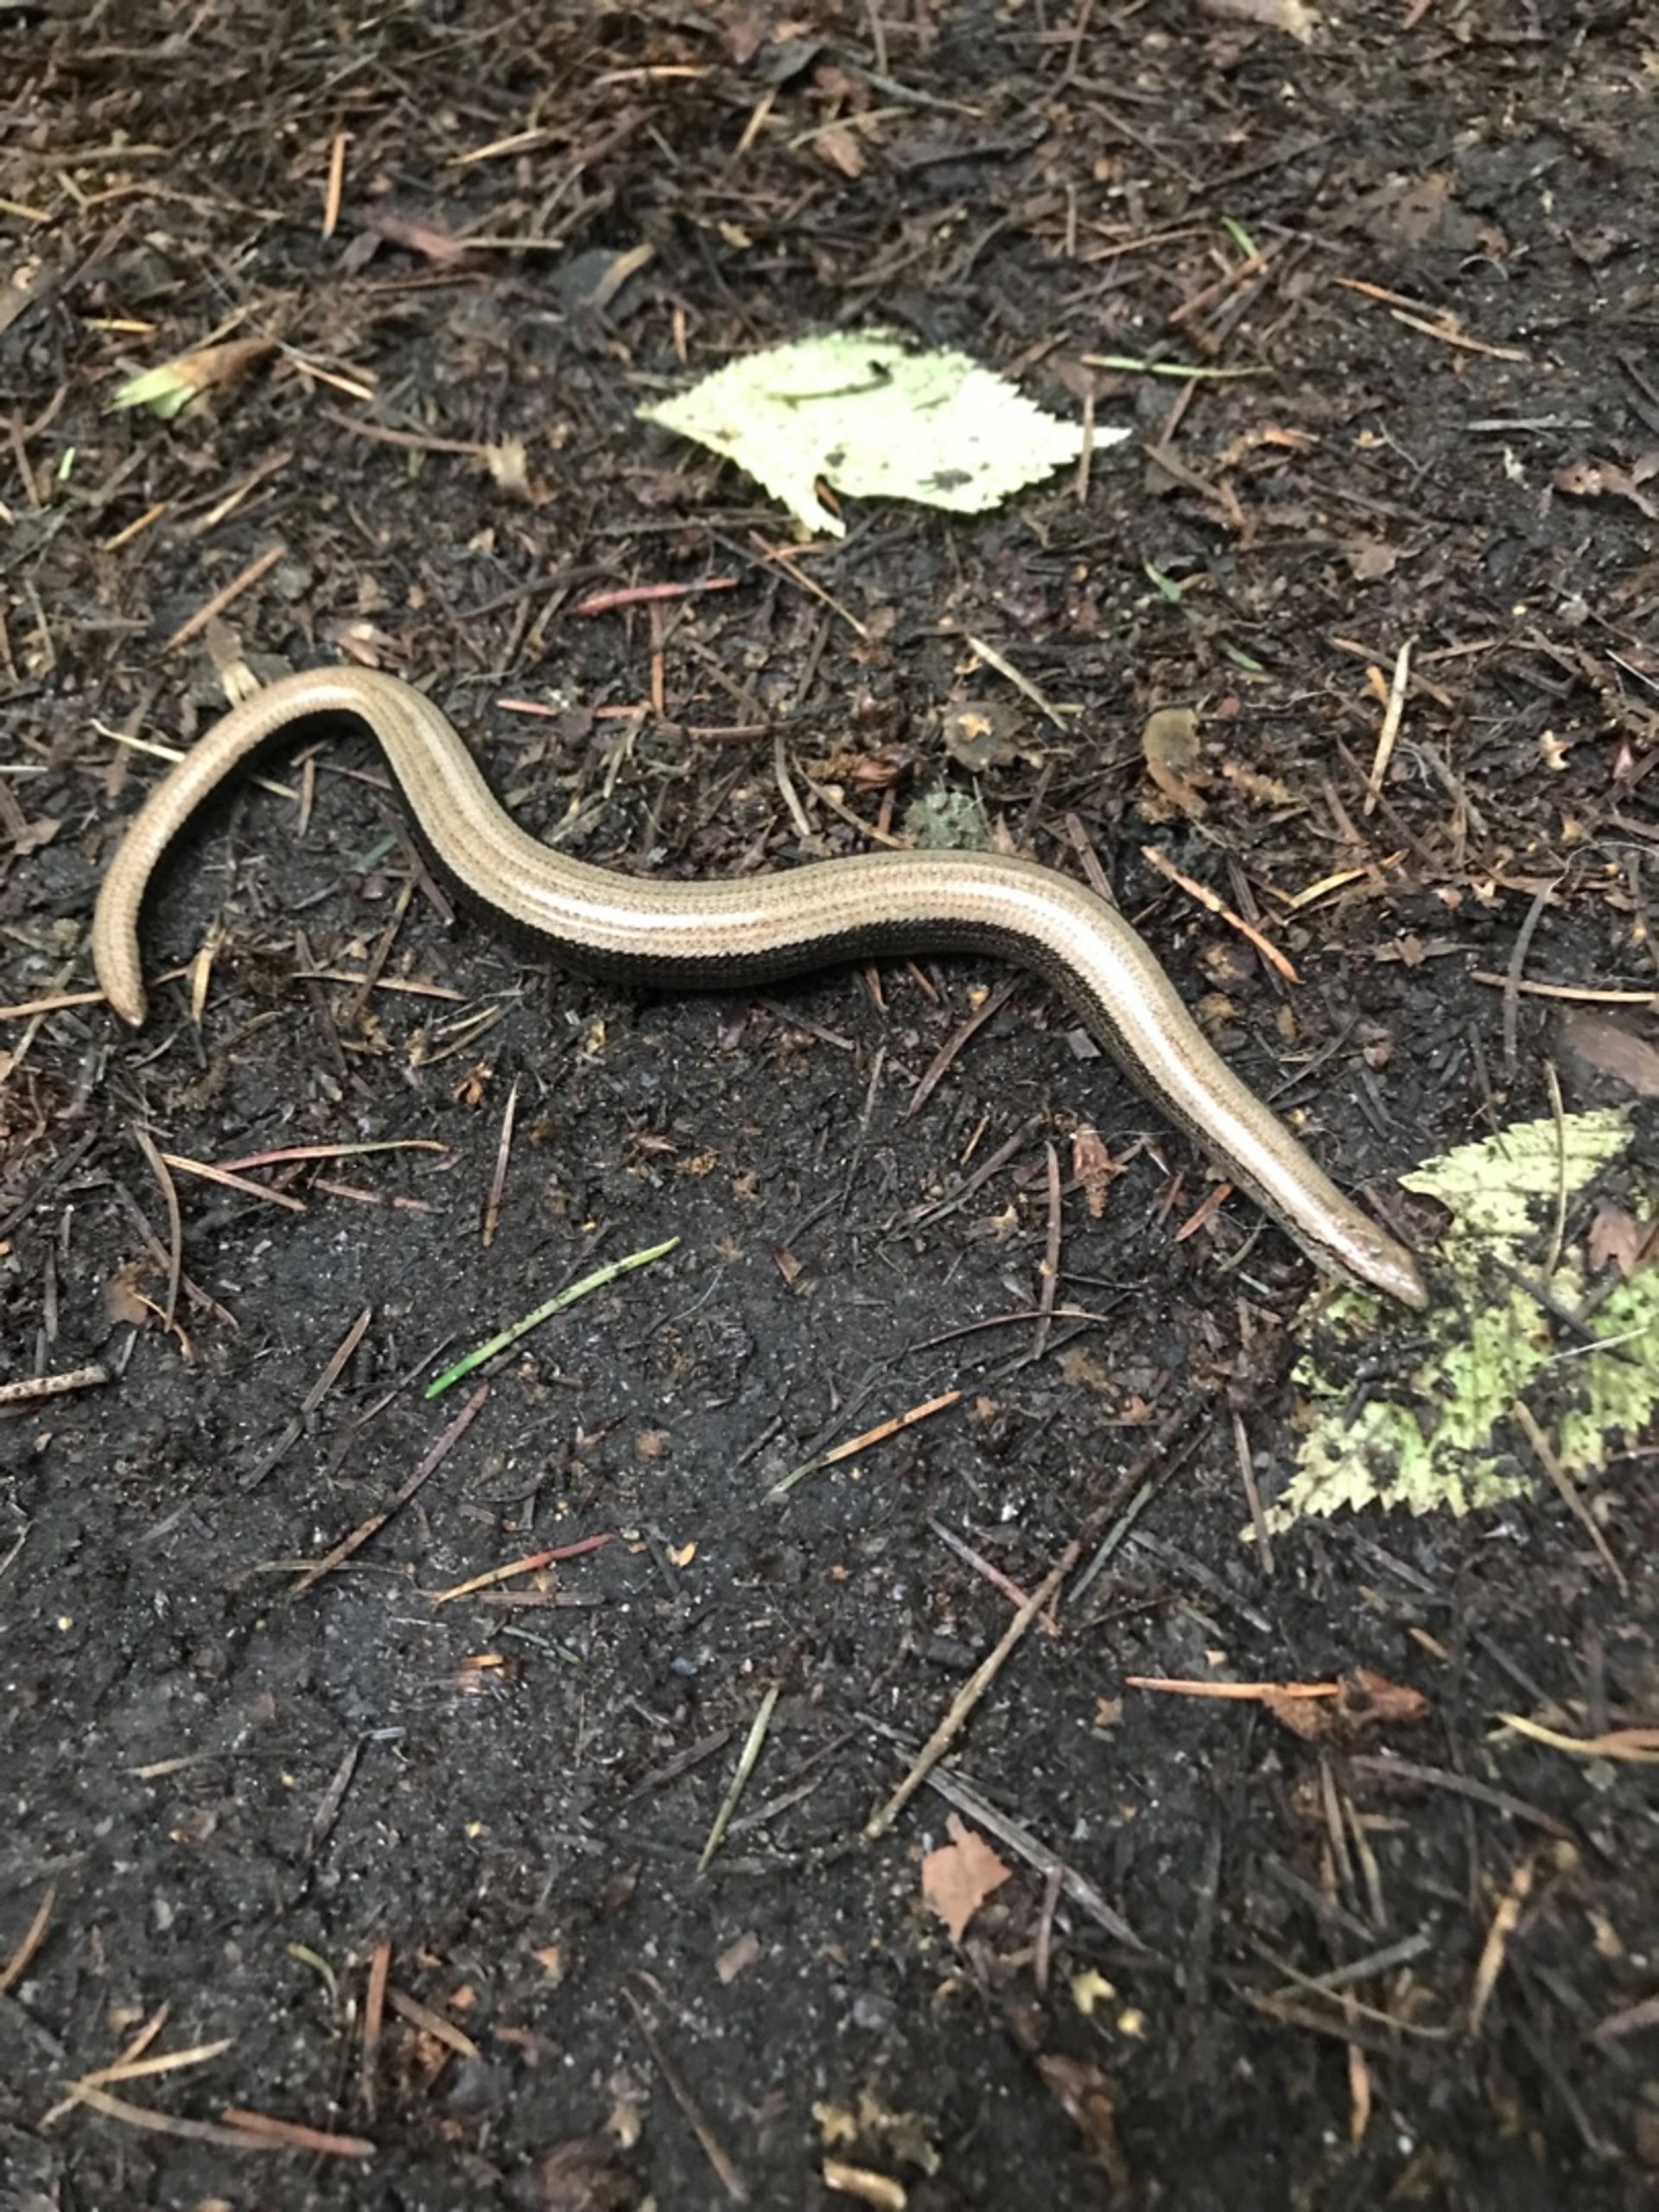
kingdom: Animalia
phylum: Chordata
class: Squamata
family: Anguidae
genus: Anguis
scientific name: Anguis fragilis
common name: Stålorm
